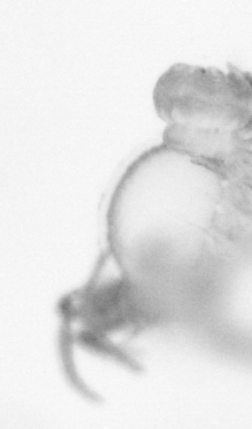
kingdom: Animalia
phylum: Annelida
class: Polychaeta
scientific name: Polychaeta
